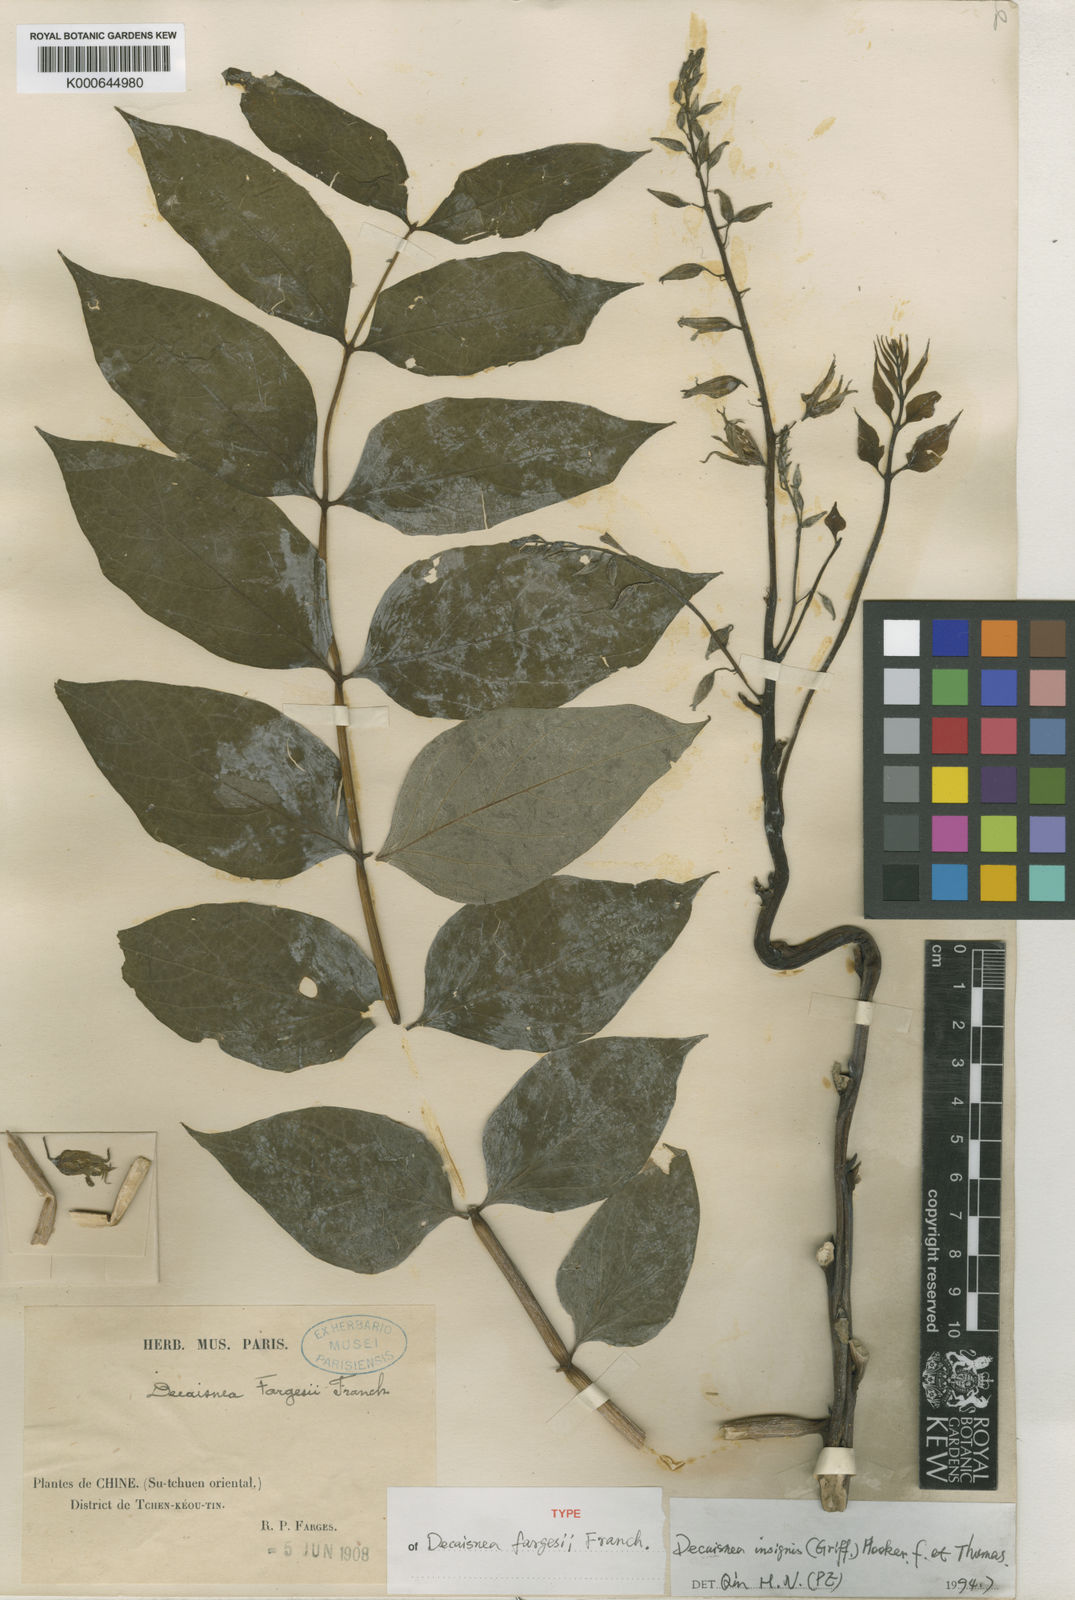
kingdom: Plantae
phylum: Tracheophyta
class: Magnoliopsida
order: Ranunculales
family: Lardizabalaceae
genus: Decaisnea
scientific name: Decaisnea insignis
